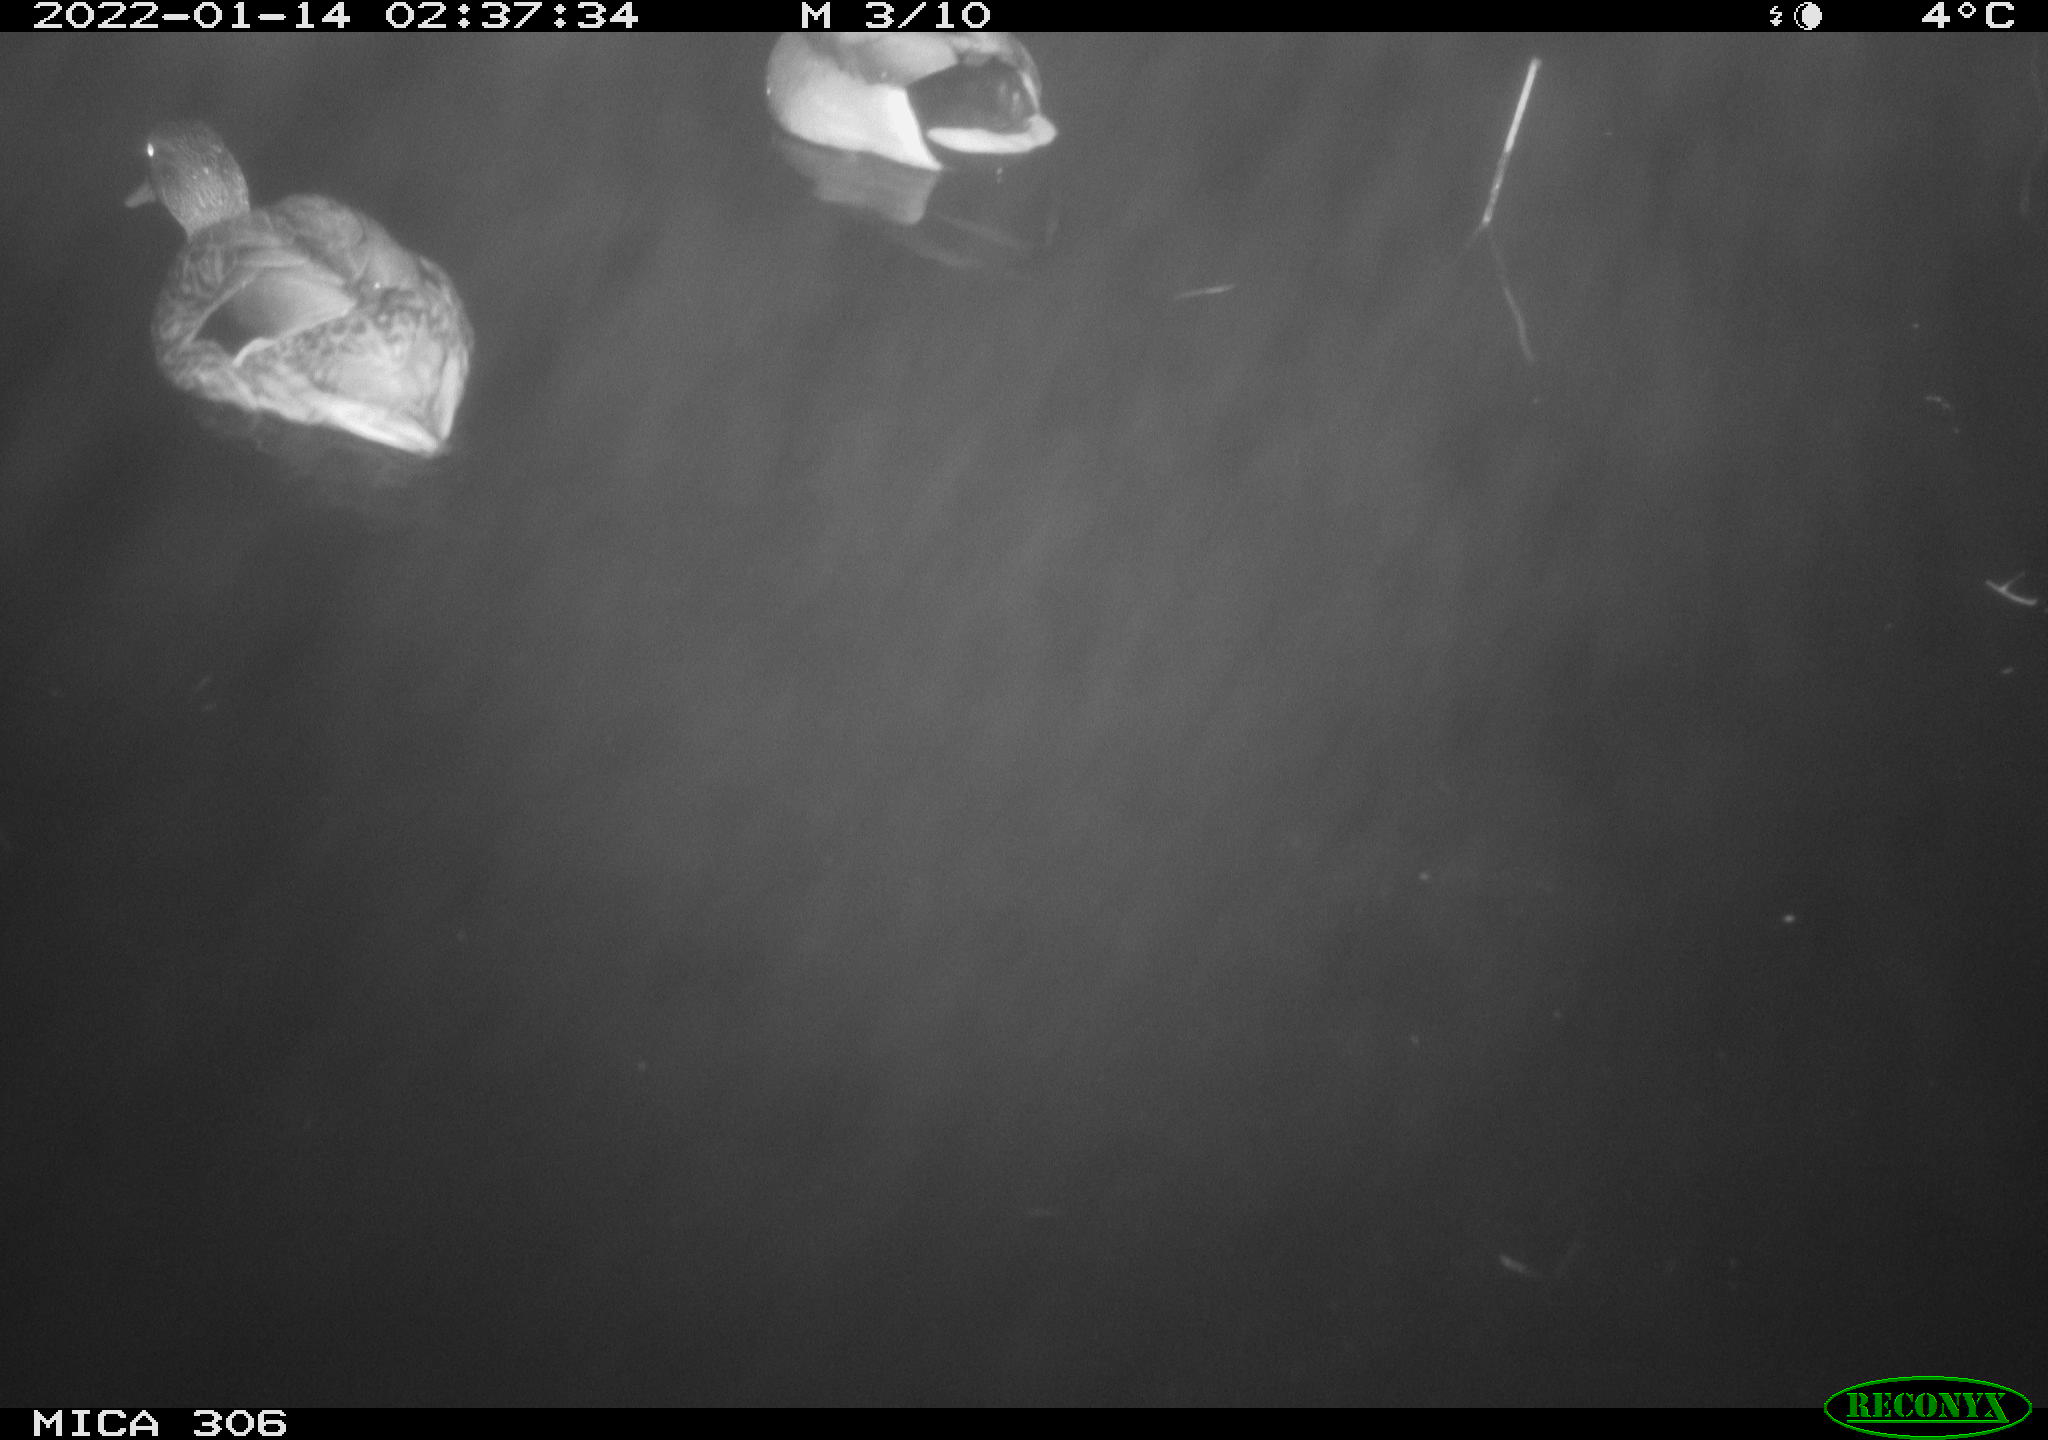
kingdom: Animalia
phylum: Chordata
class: Aves
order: Anseriformes
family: Anatidae
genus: Anas
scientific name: Anas platyrhynchos
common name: Mallard
